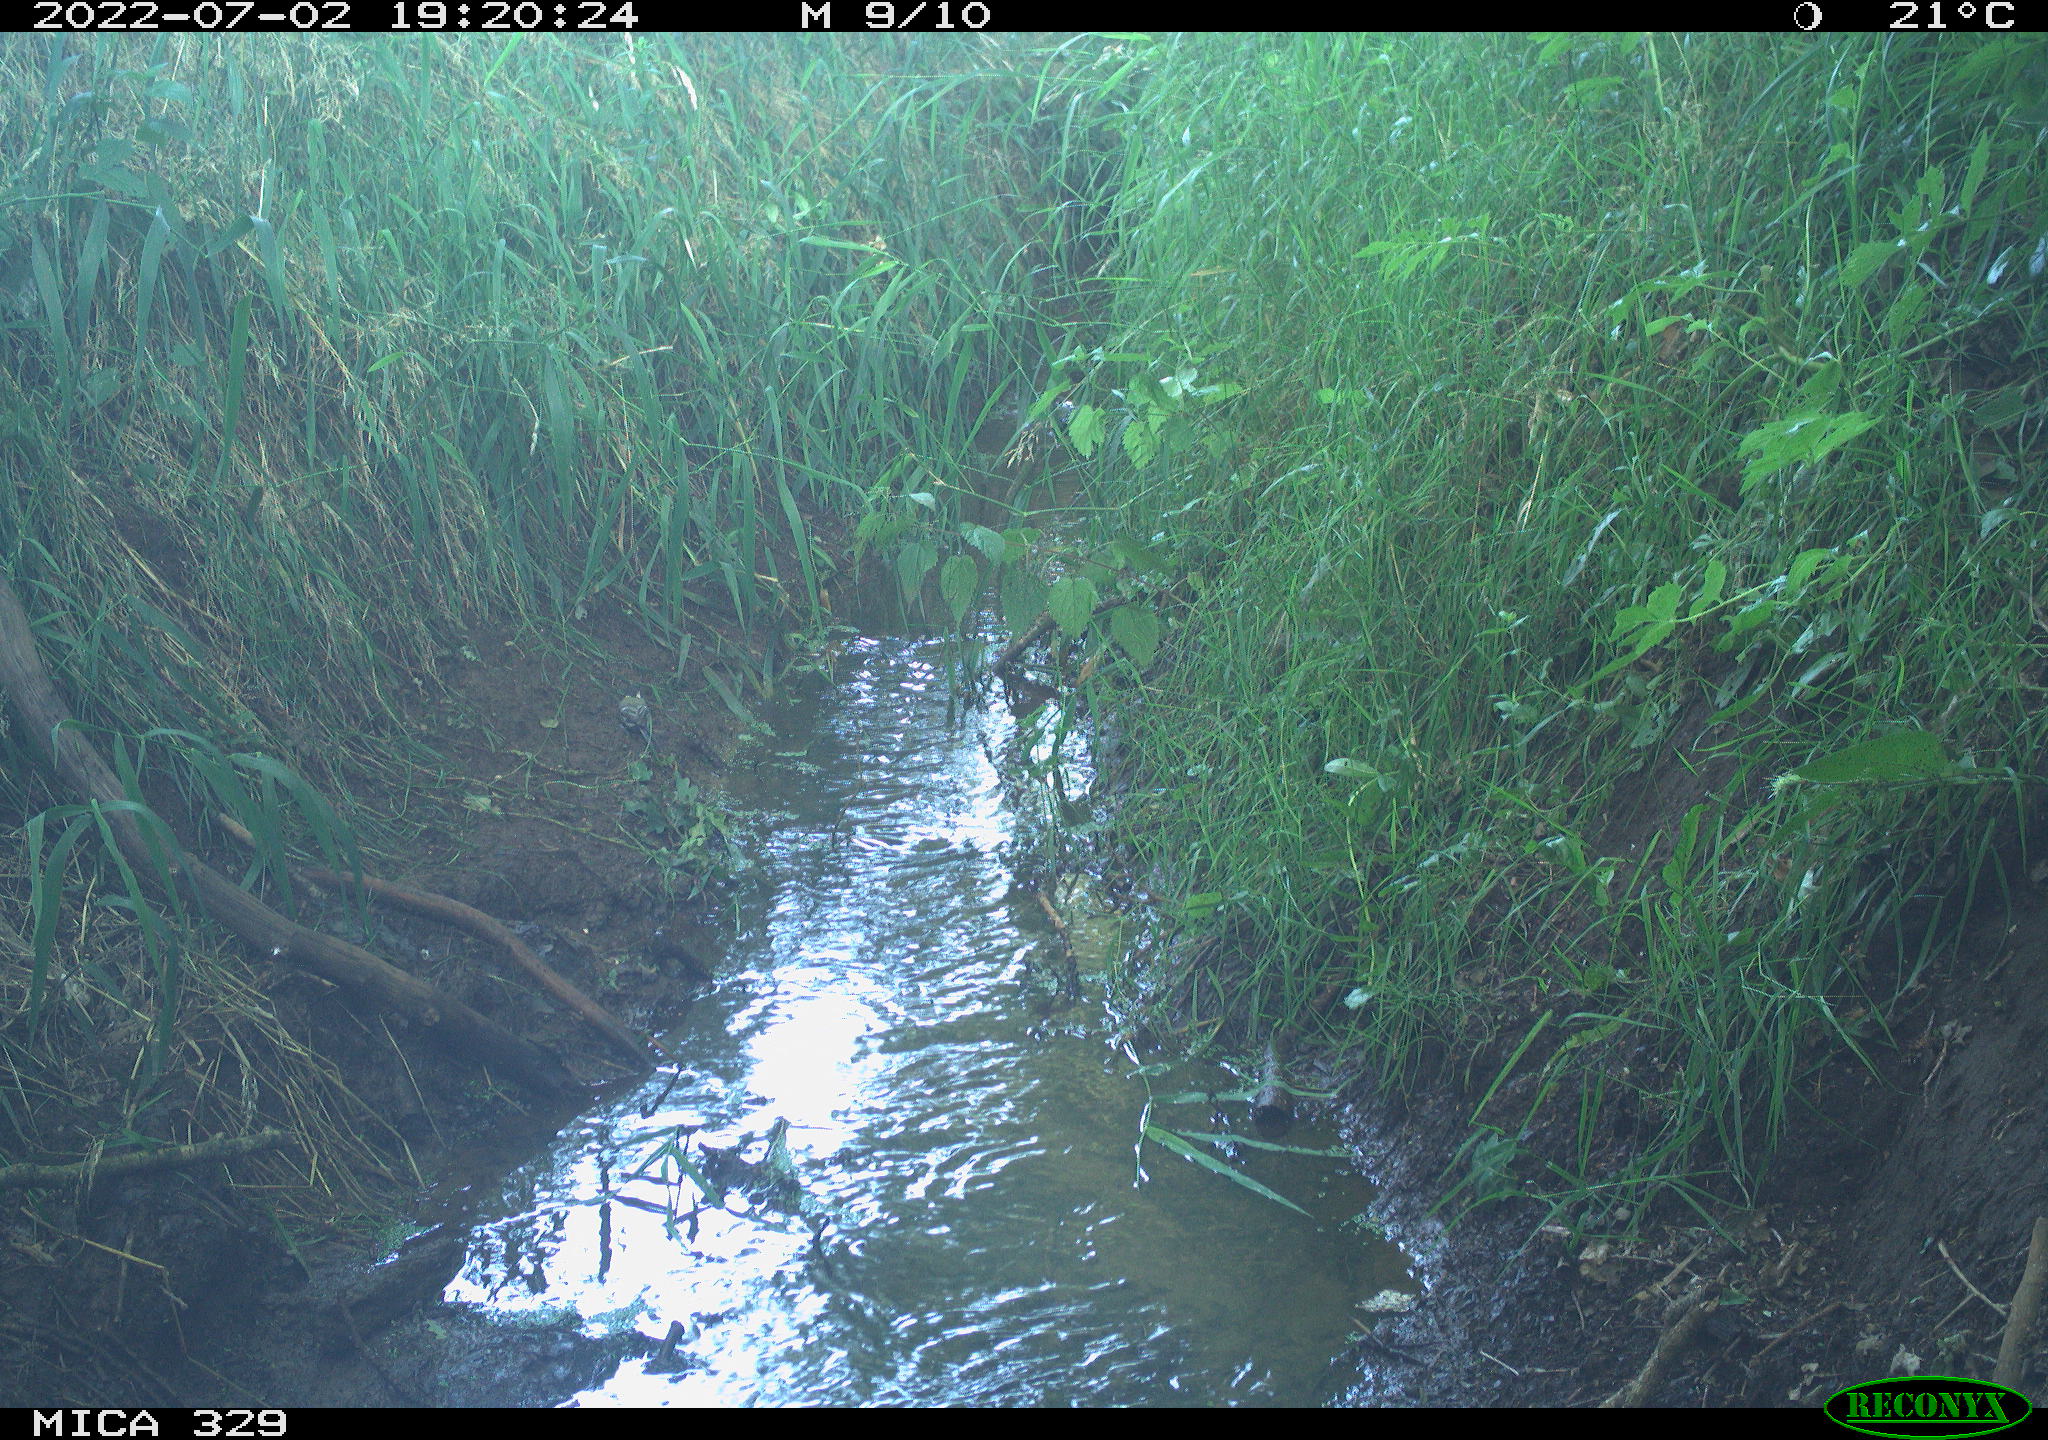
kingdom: Animalia
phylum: Chordata
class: Aves
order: Passeriformes
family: Paridae
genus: Parus
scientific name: Parus major
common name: Great tit
